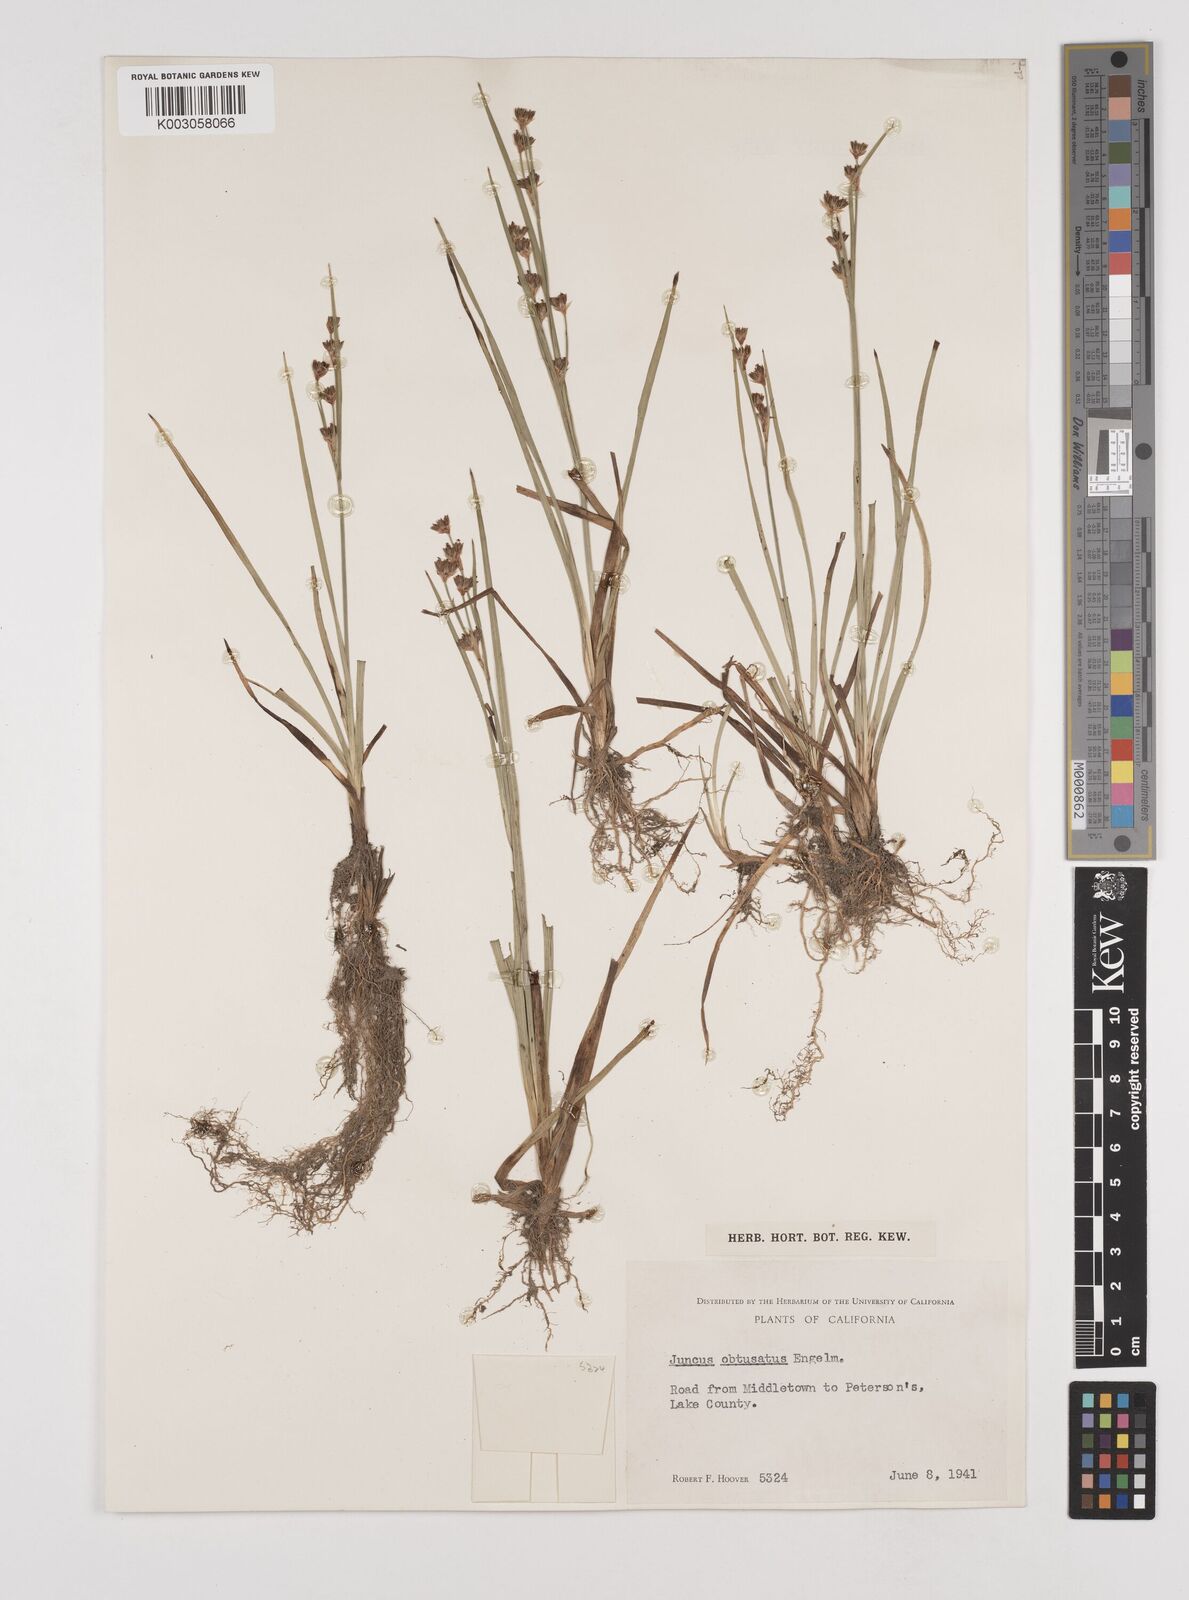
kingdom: Plantae
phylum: Tracheophyta
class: Liliopsida
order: Poales
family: Juncaceae
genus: Juncus
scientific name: Juncus covillei
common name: Coville's rush
